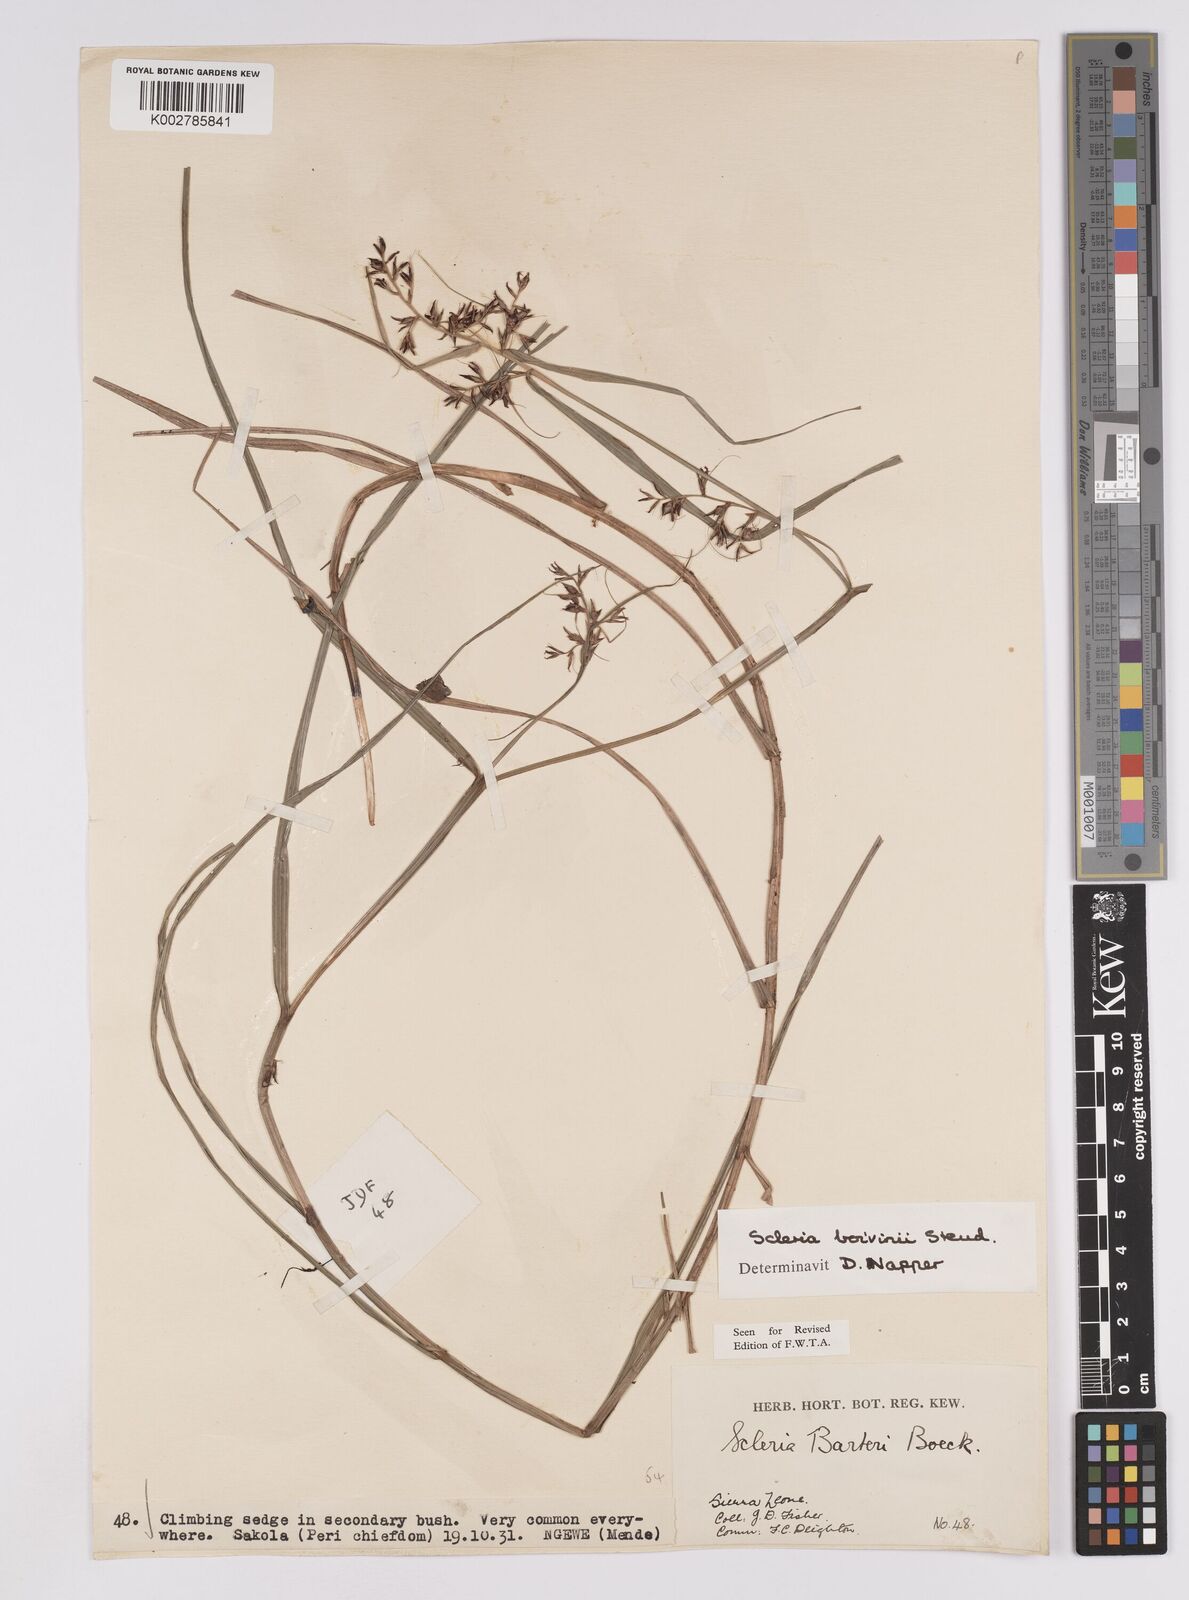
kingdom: Plantae
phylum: Tracheophyta
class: Liliopsida
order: Poales
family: Cyperaceae
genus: Scleria
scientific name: Scleria boivinii
